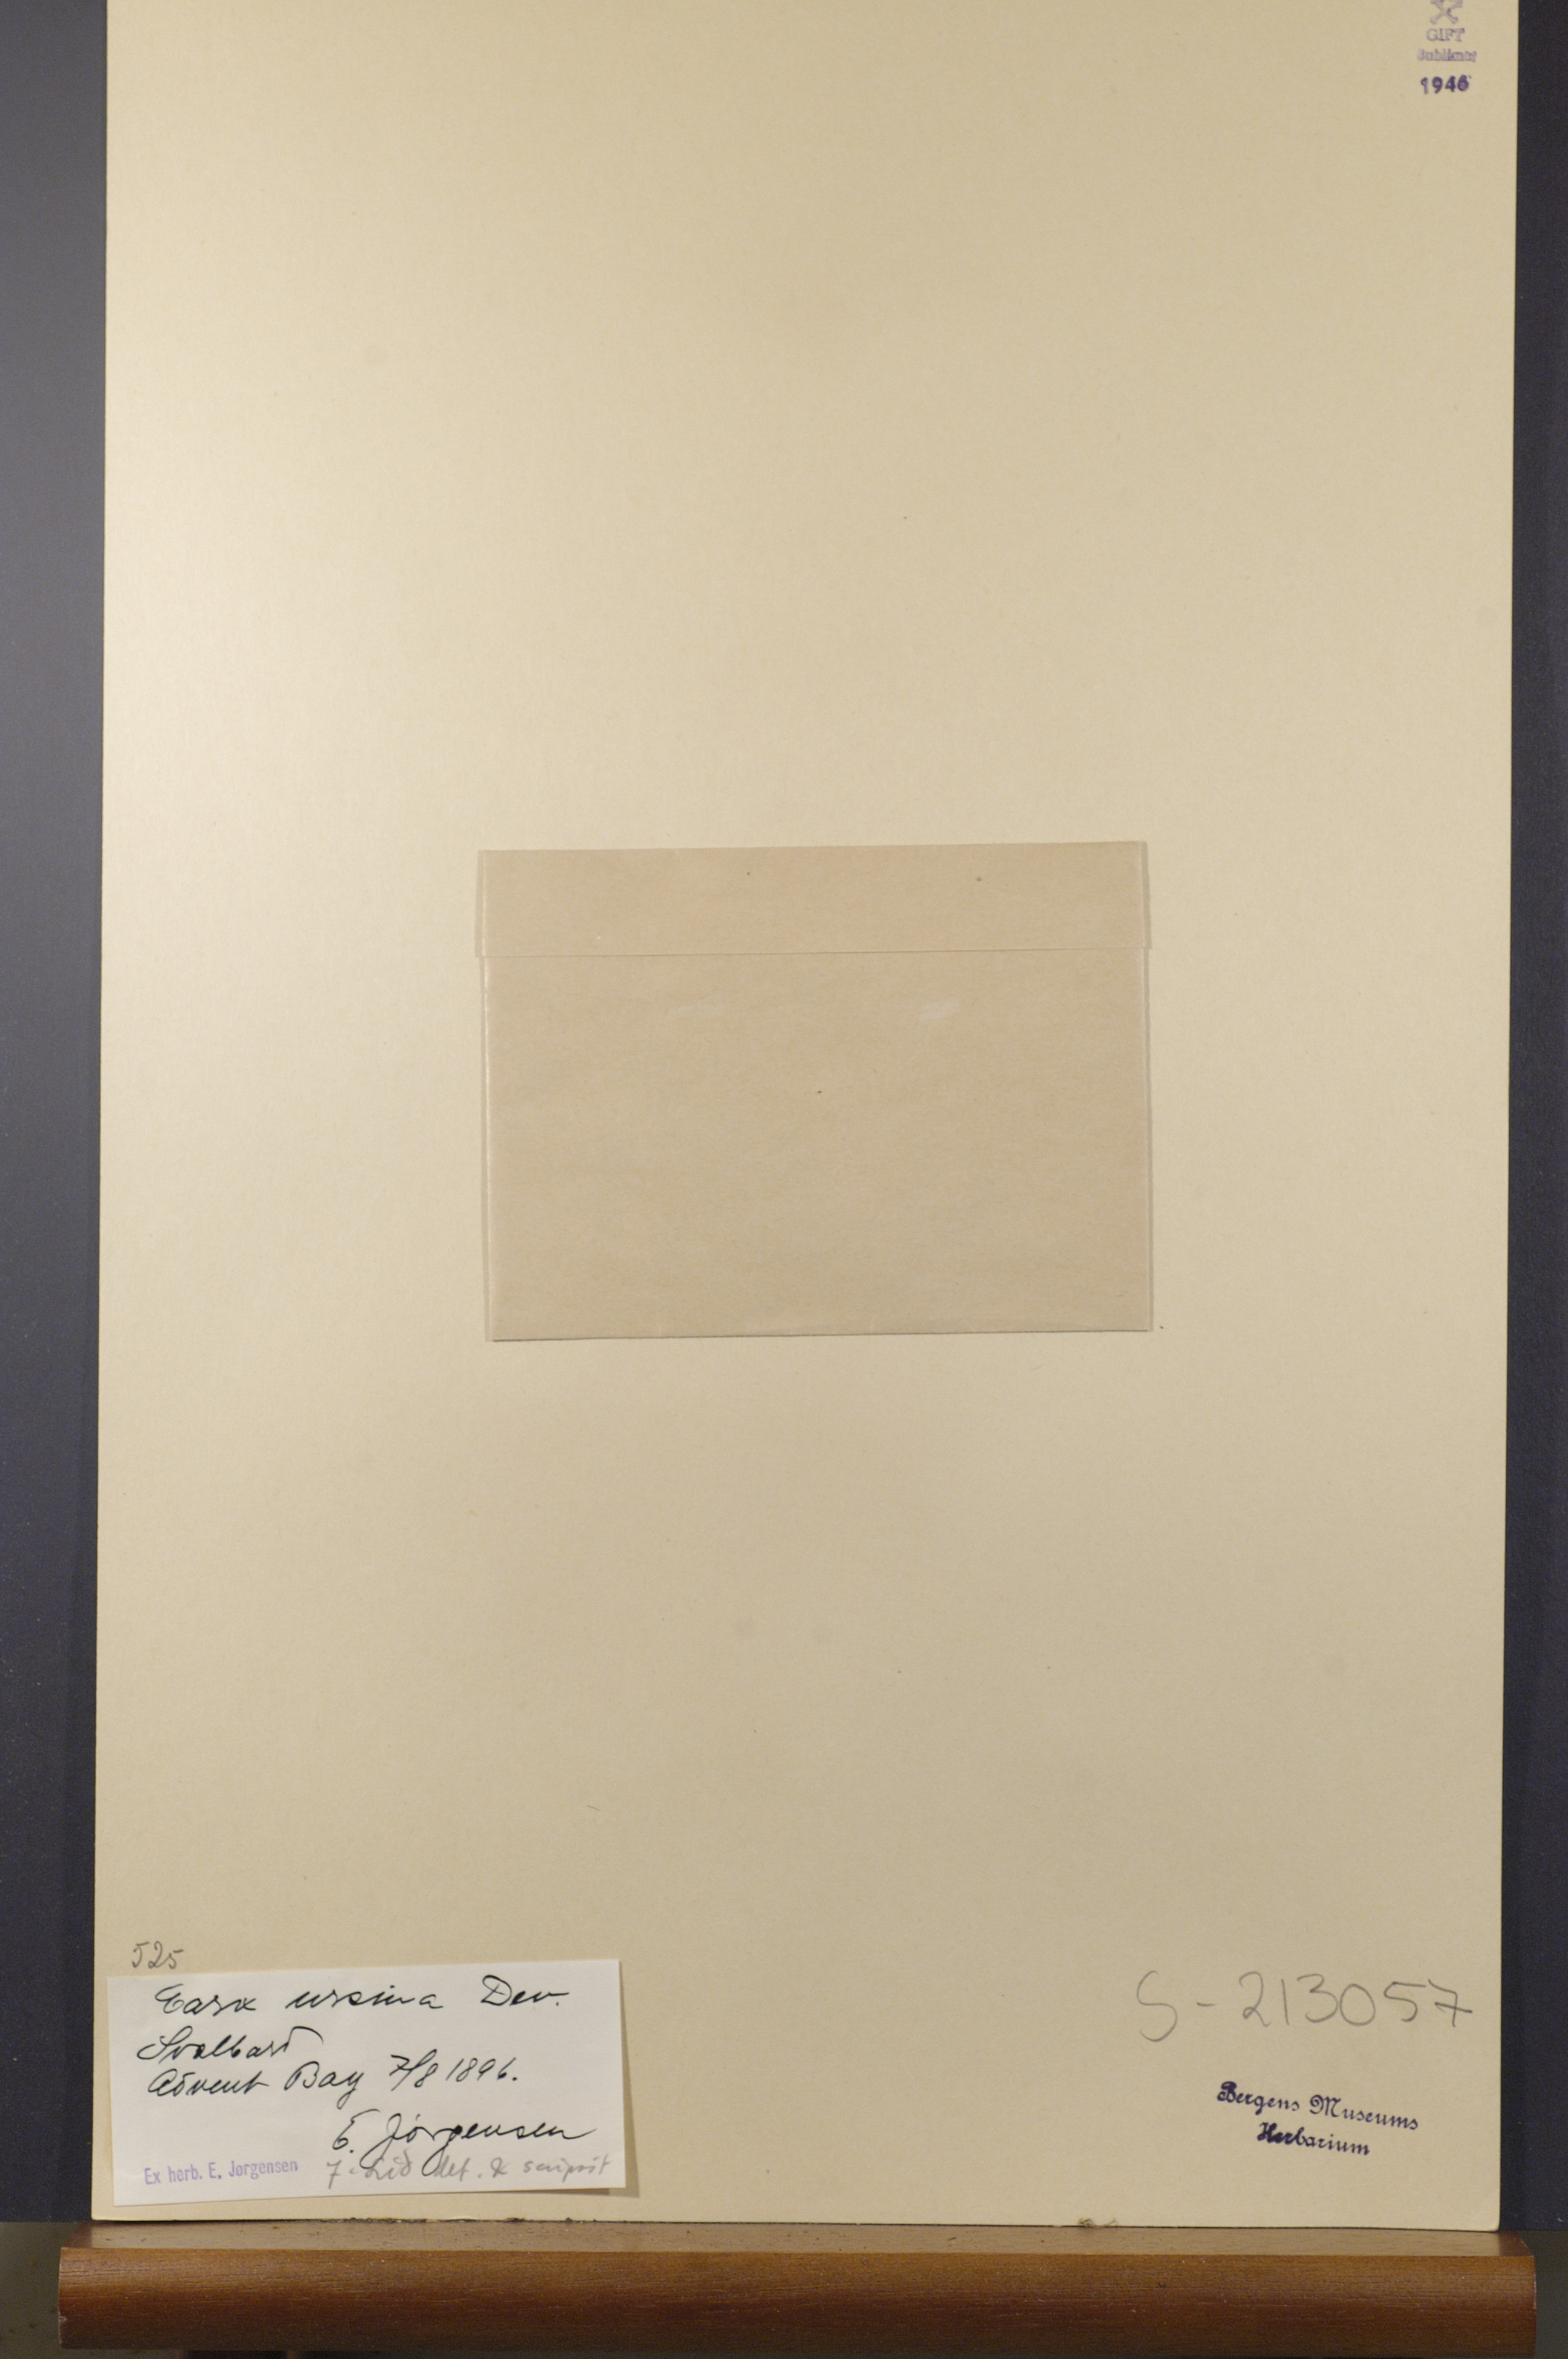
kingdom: Plantae
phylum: Tracheophyta
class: Liliopsida
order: Poales
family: Cyperaceae
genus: Carex
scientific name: Carex ursina
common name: Bear sedge
